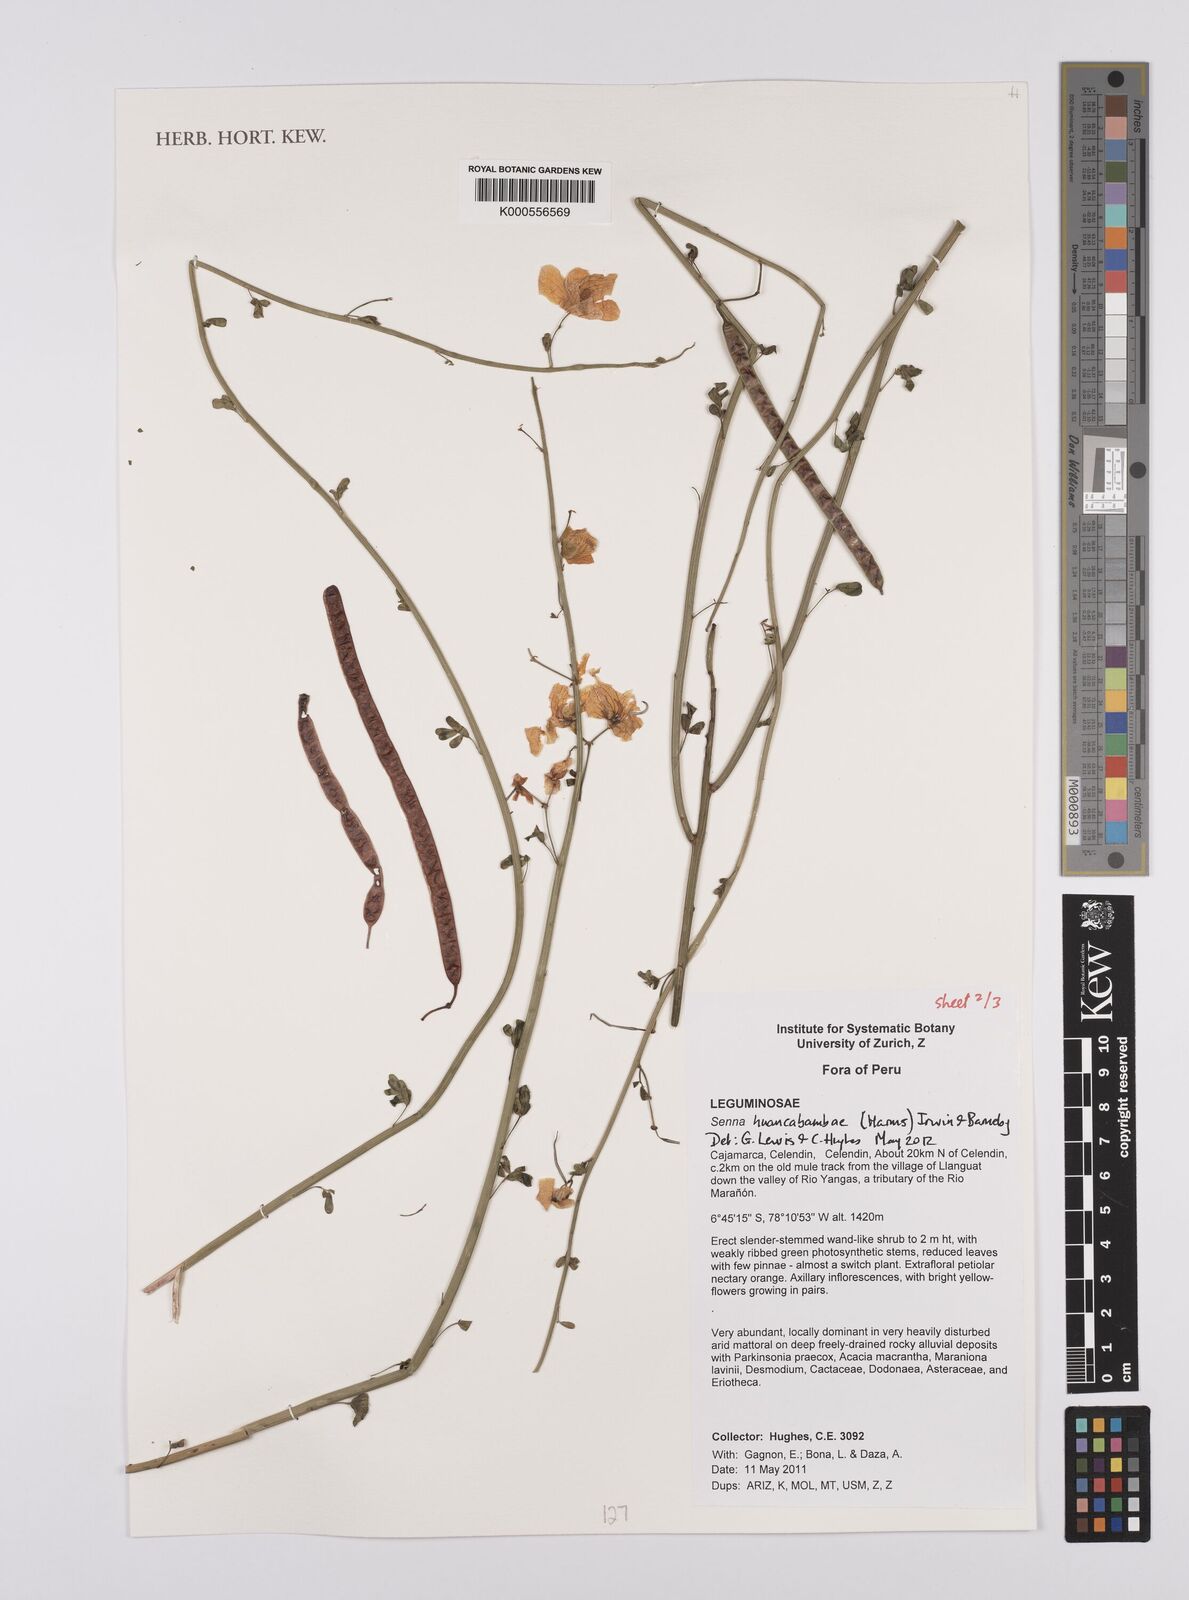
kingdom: Plantae
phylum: Tracheophyta
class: Magnoliopsida
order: Fabales
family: Fabaceae
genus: Senna
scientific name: Senna huancabambae
